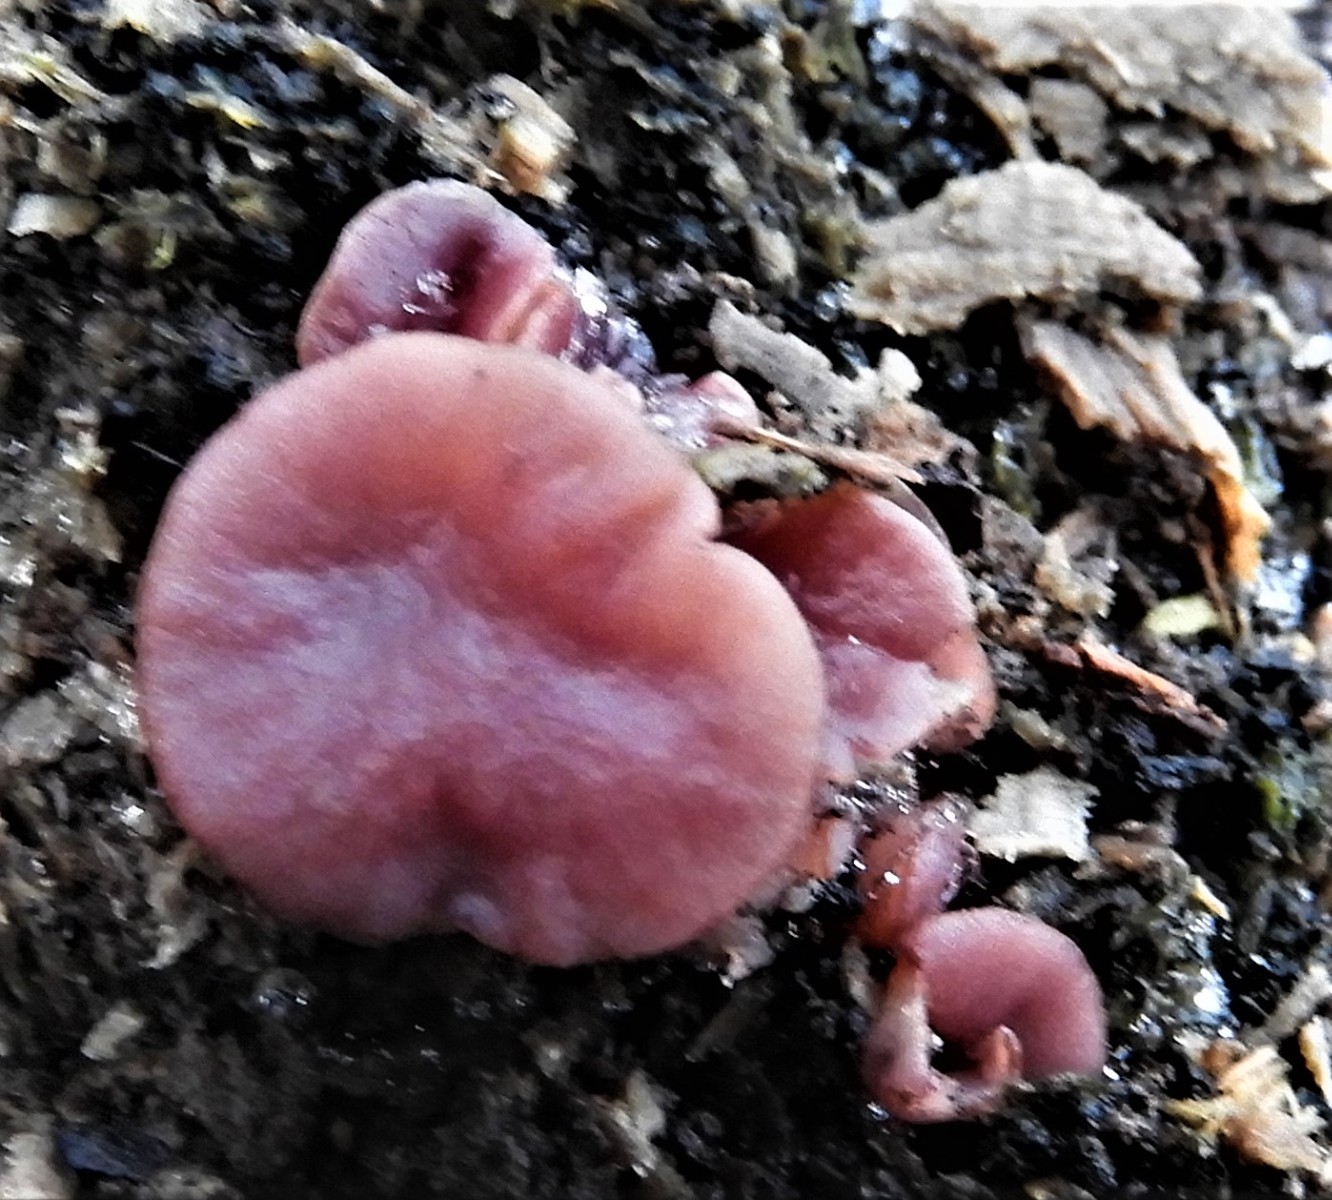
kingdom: Fungi
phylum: Ascomycota
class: Leotiomycetes
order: Helotiales
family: Gelatinodiscaceae
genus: Ascocoryne
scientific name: Ascocoryne cylichnium
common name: stor sejskive
